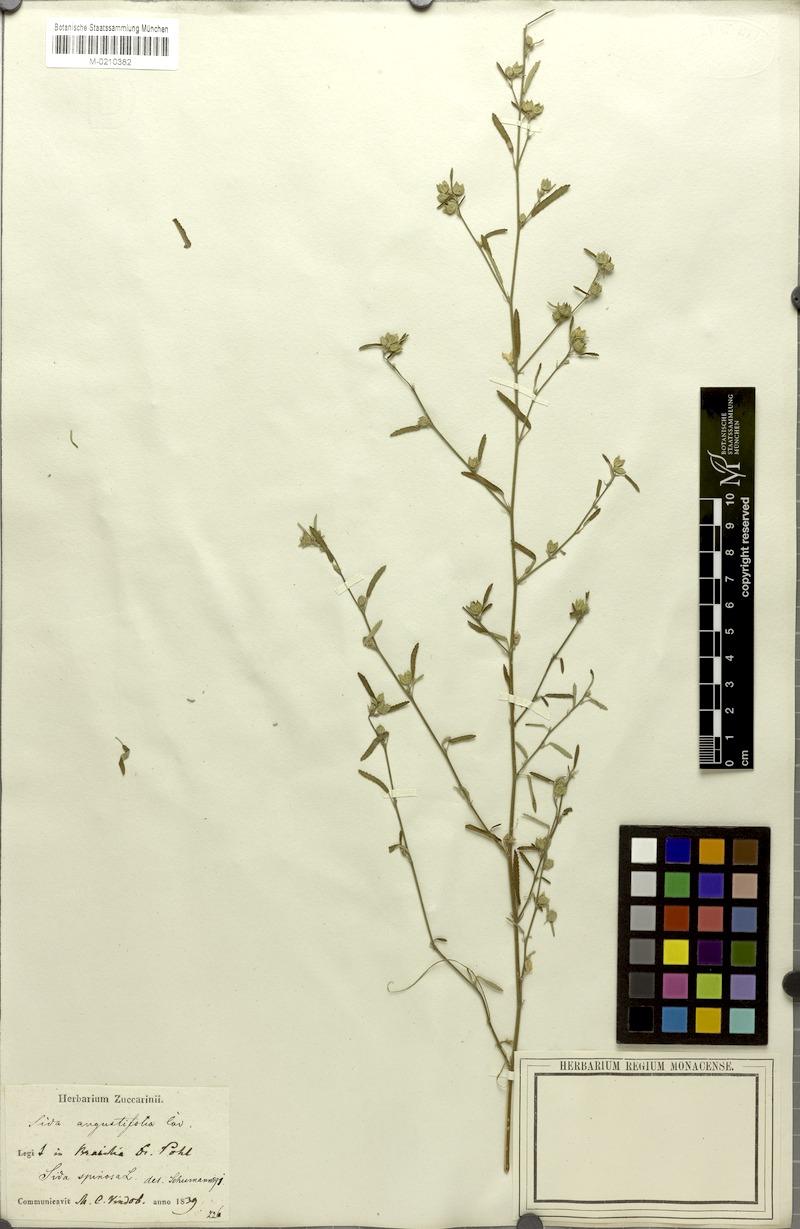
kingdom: Plantae
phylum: Tracheophyta
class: Magnoliopsida
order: Malvales
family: Malvaceae
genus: Sida
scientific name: Sida spinosa
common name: Prickly fanpetals
